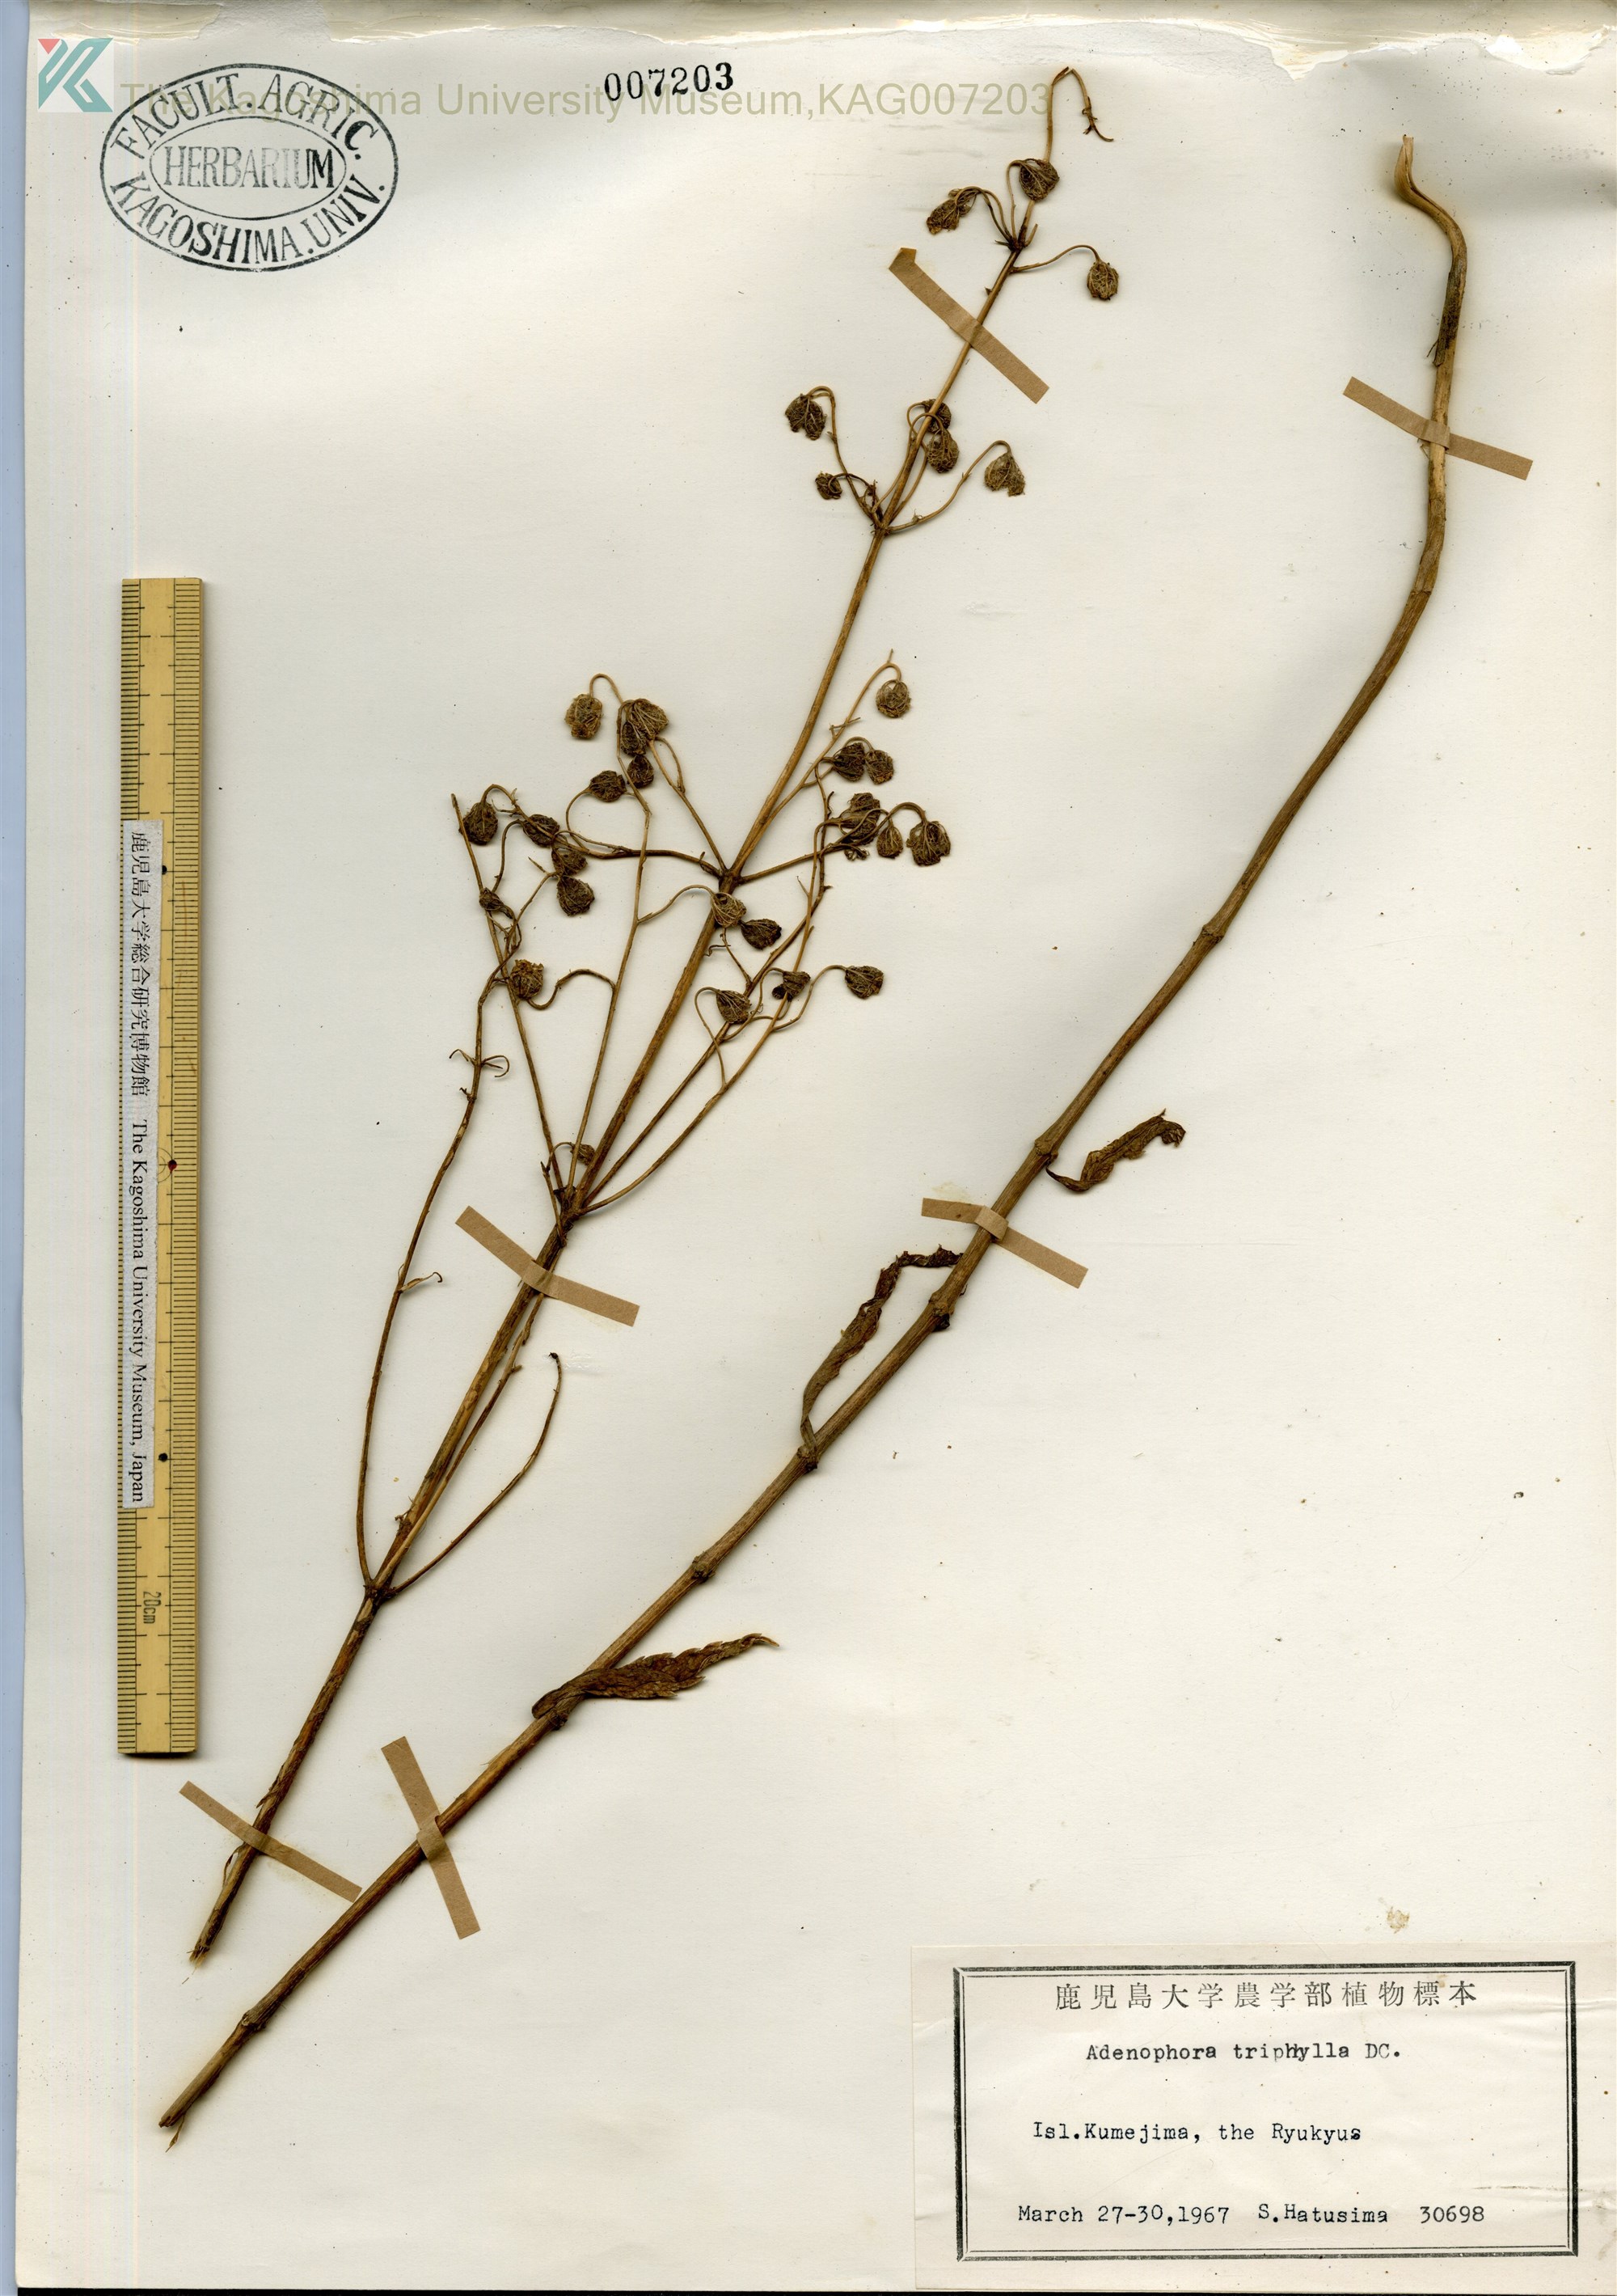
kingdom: Plantae
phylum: Tracheophyta
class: Magnoliopsida
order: Asterales
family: Campanulaceae
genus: Adenophora
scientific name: Adenophora triphylla
